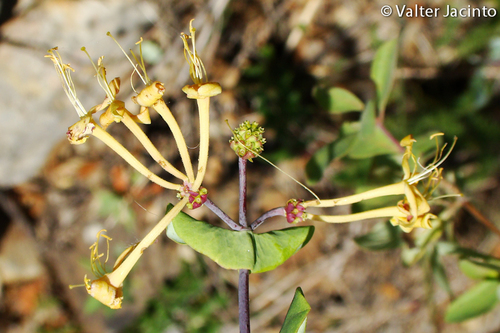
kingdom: Plantae
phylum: Tracheophyta
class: Magnoliopsida
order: Dipsacales
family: Caprifoliaceae
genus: Lonicera
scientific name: Lonicera etrusca
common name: Etruscan honeysuckle
